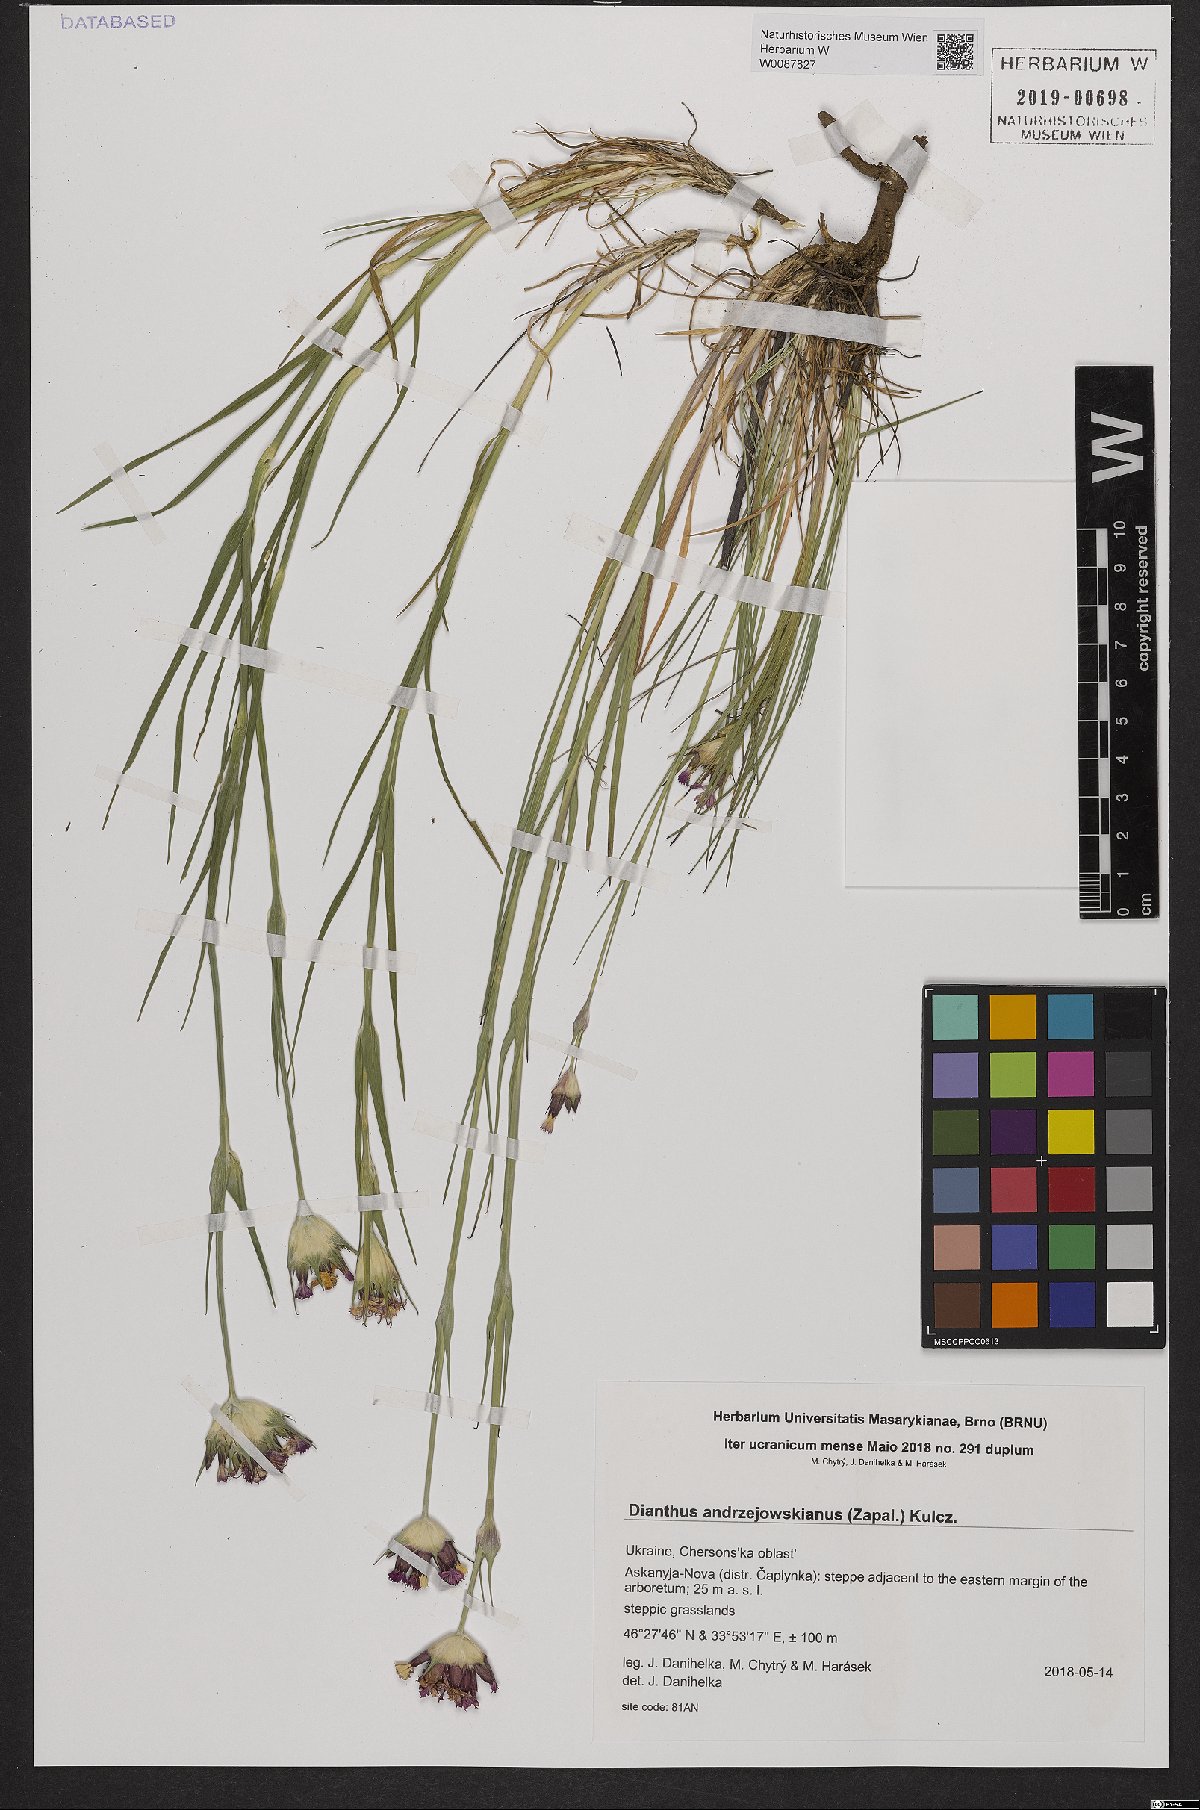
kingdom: Plantae
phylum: Tracheophyta
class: Magnoliopsida
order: Caryophyllales
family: Caryophyllaceae
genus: Dianthus
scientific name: Dianthus capitatus
